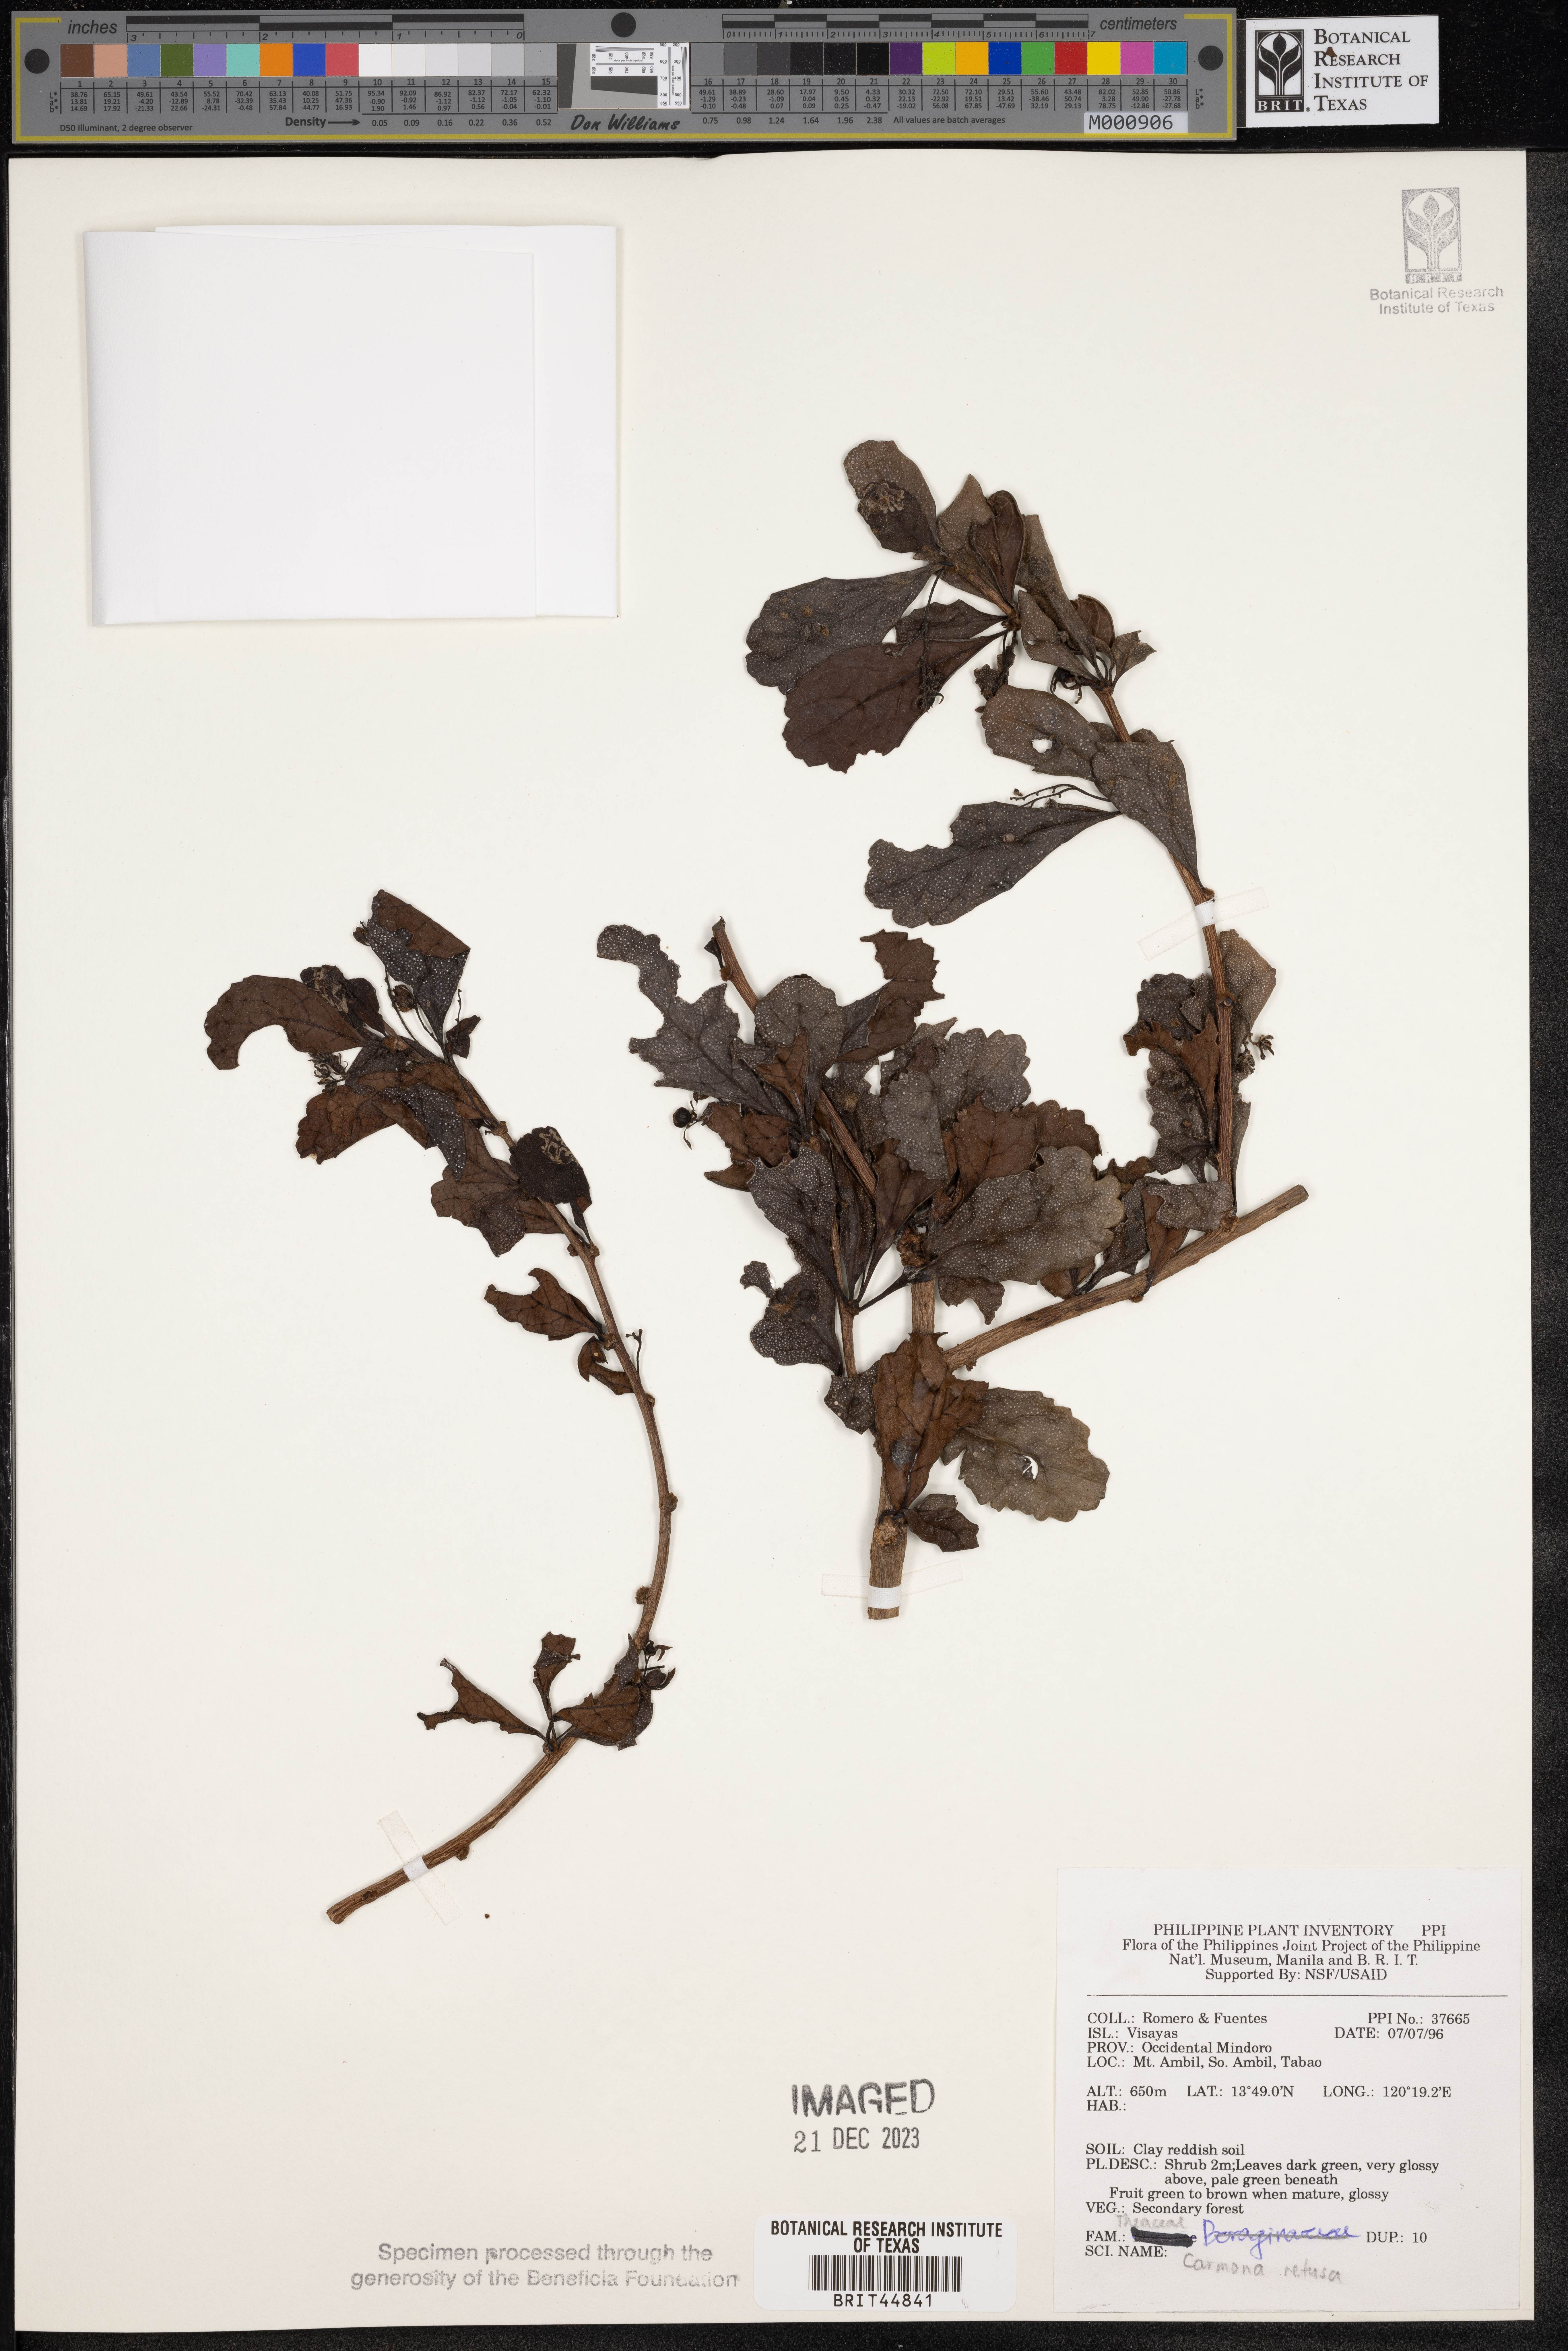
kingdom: Plantae
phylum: Tracheophyta
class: Magnoliopsida
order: Boraginales
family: Ehretiaceae
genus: Ehretia
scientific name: Ehretia microphylla
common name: Fukien-tea
